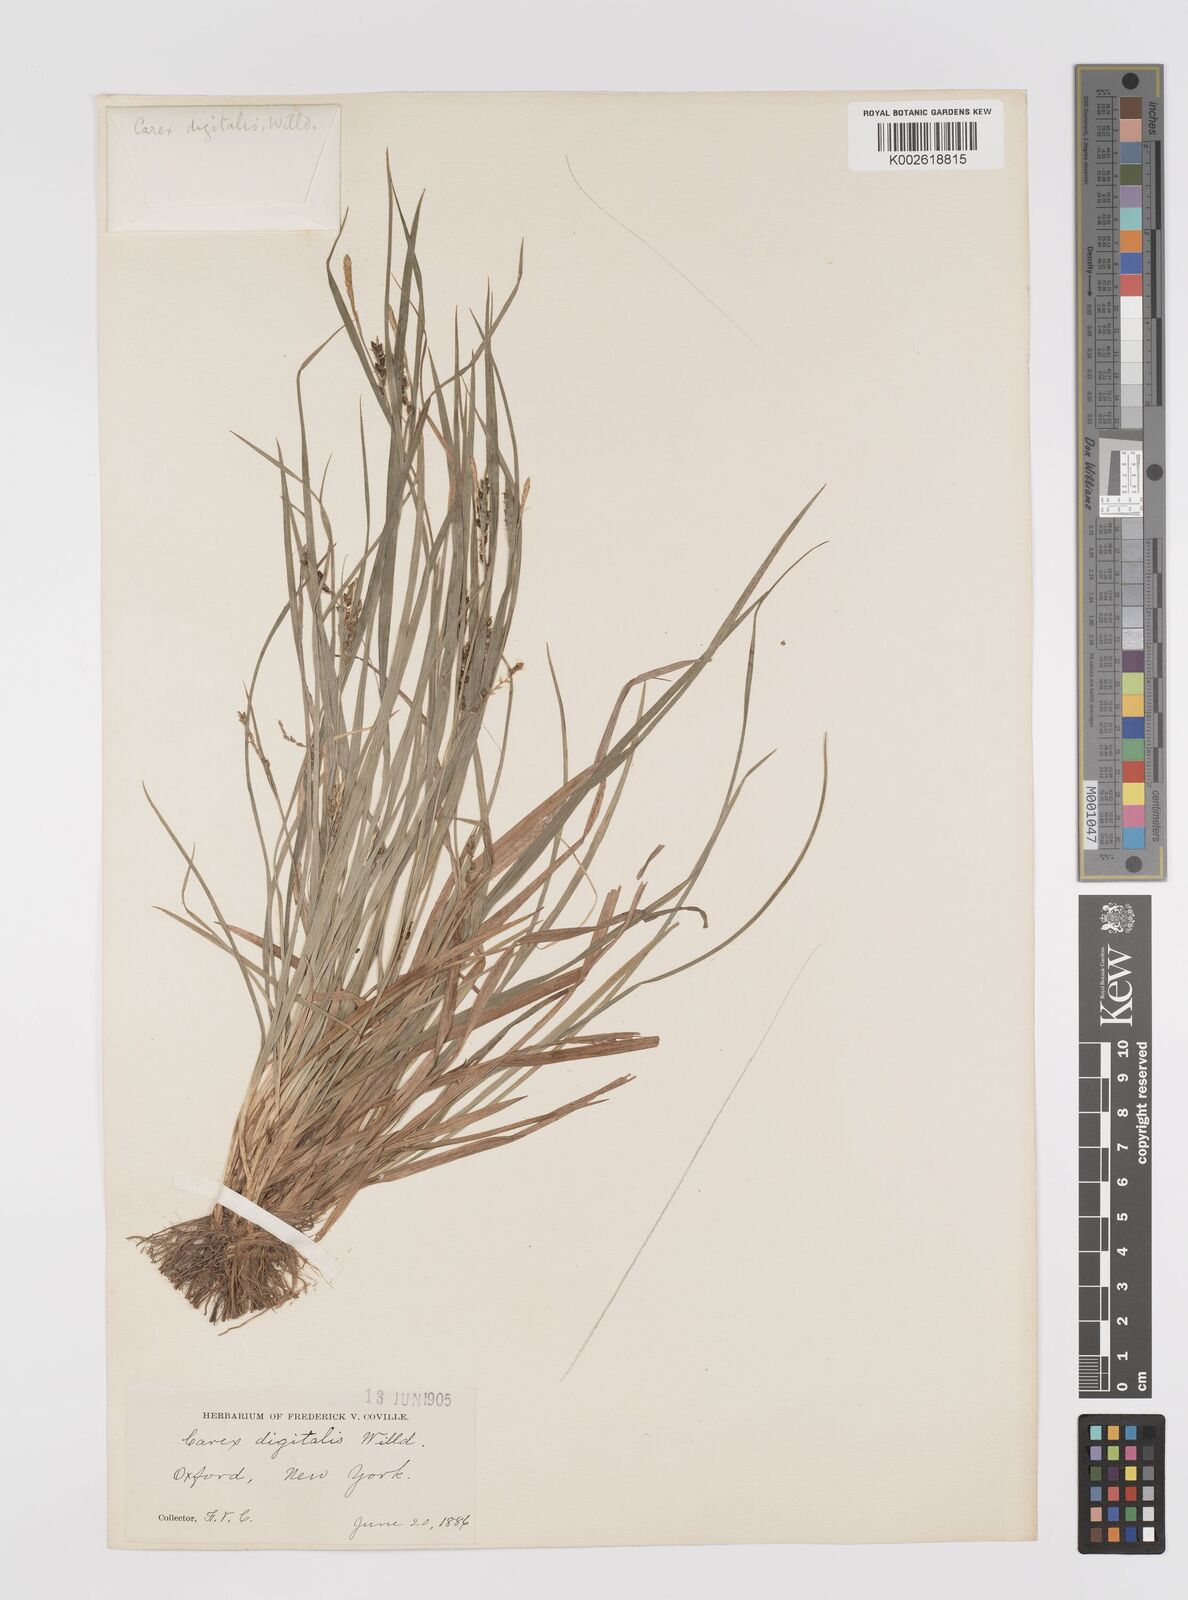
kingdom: Plantae
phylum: Tracheophyta
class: Liliopsida
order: Poales
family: Cyperaceae
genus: Carex
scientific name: Carex digitalis
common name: Slender wood sedge
